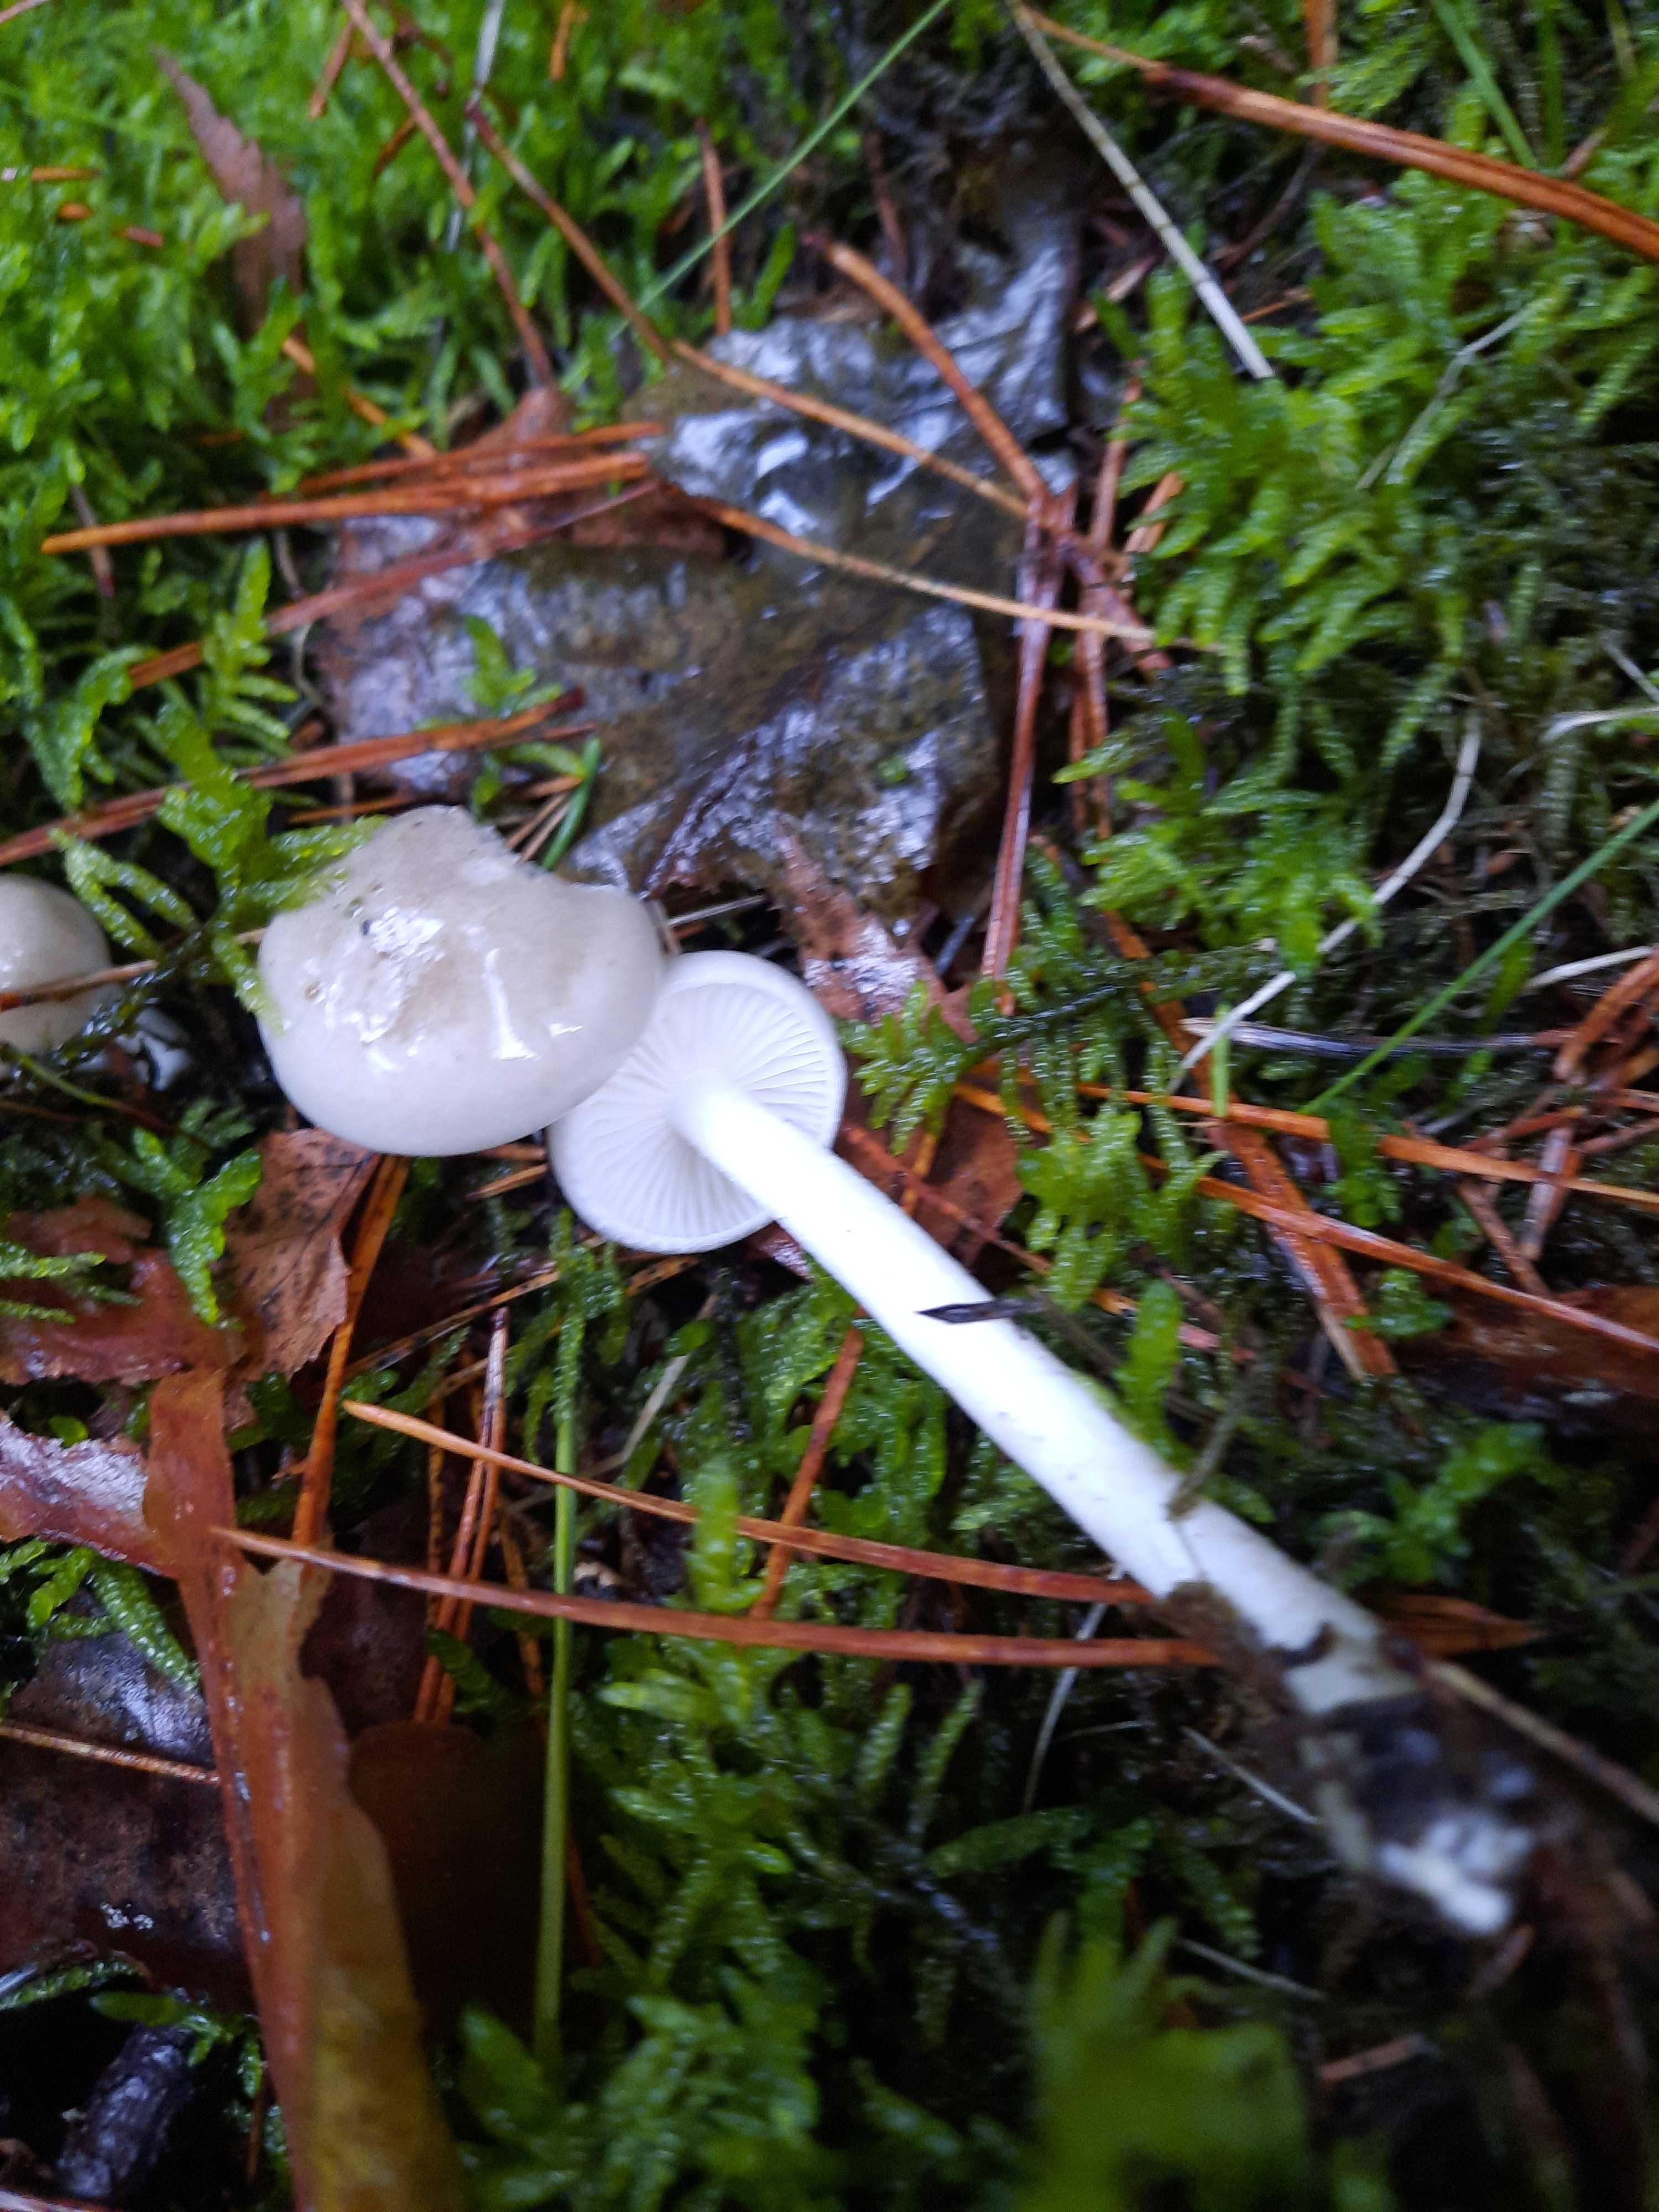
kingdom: Fungi
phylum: Basidiomycota
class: Agaricomycetes
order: Agaricales
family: Hygrophoraceae
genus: Hygrophorus
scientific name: Hygrophorus agathosmus
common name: vellugtende sneglehat
